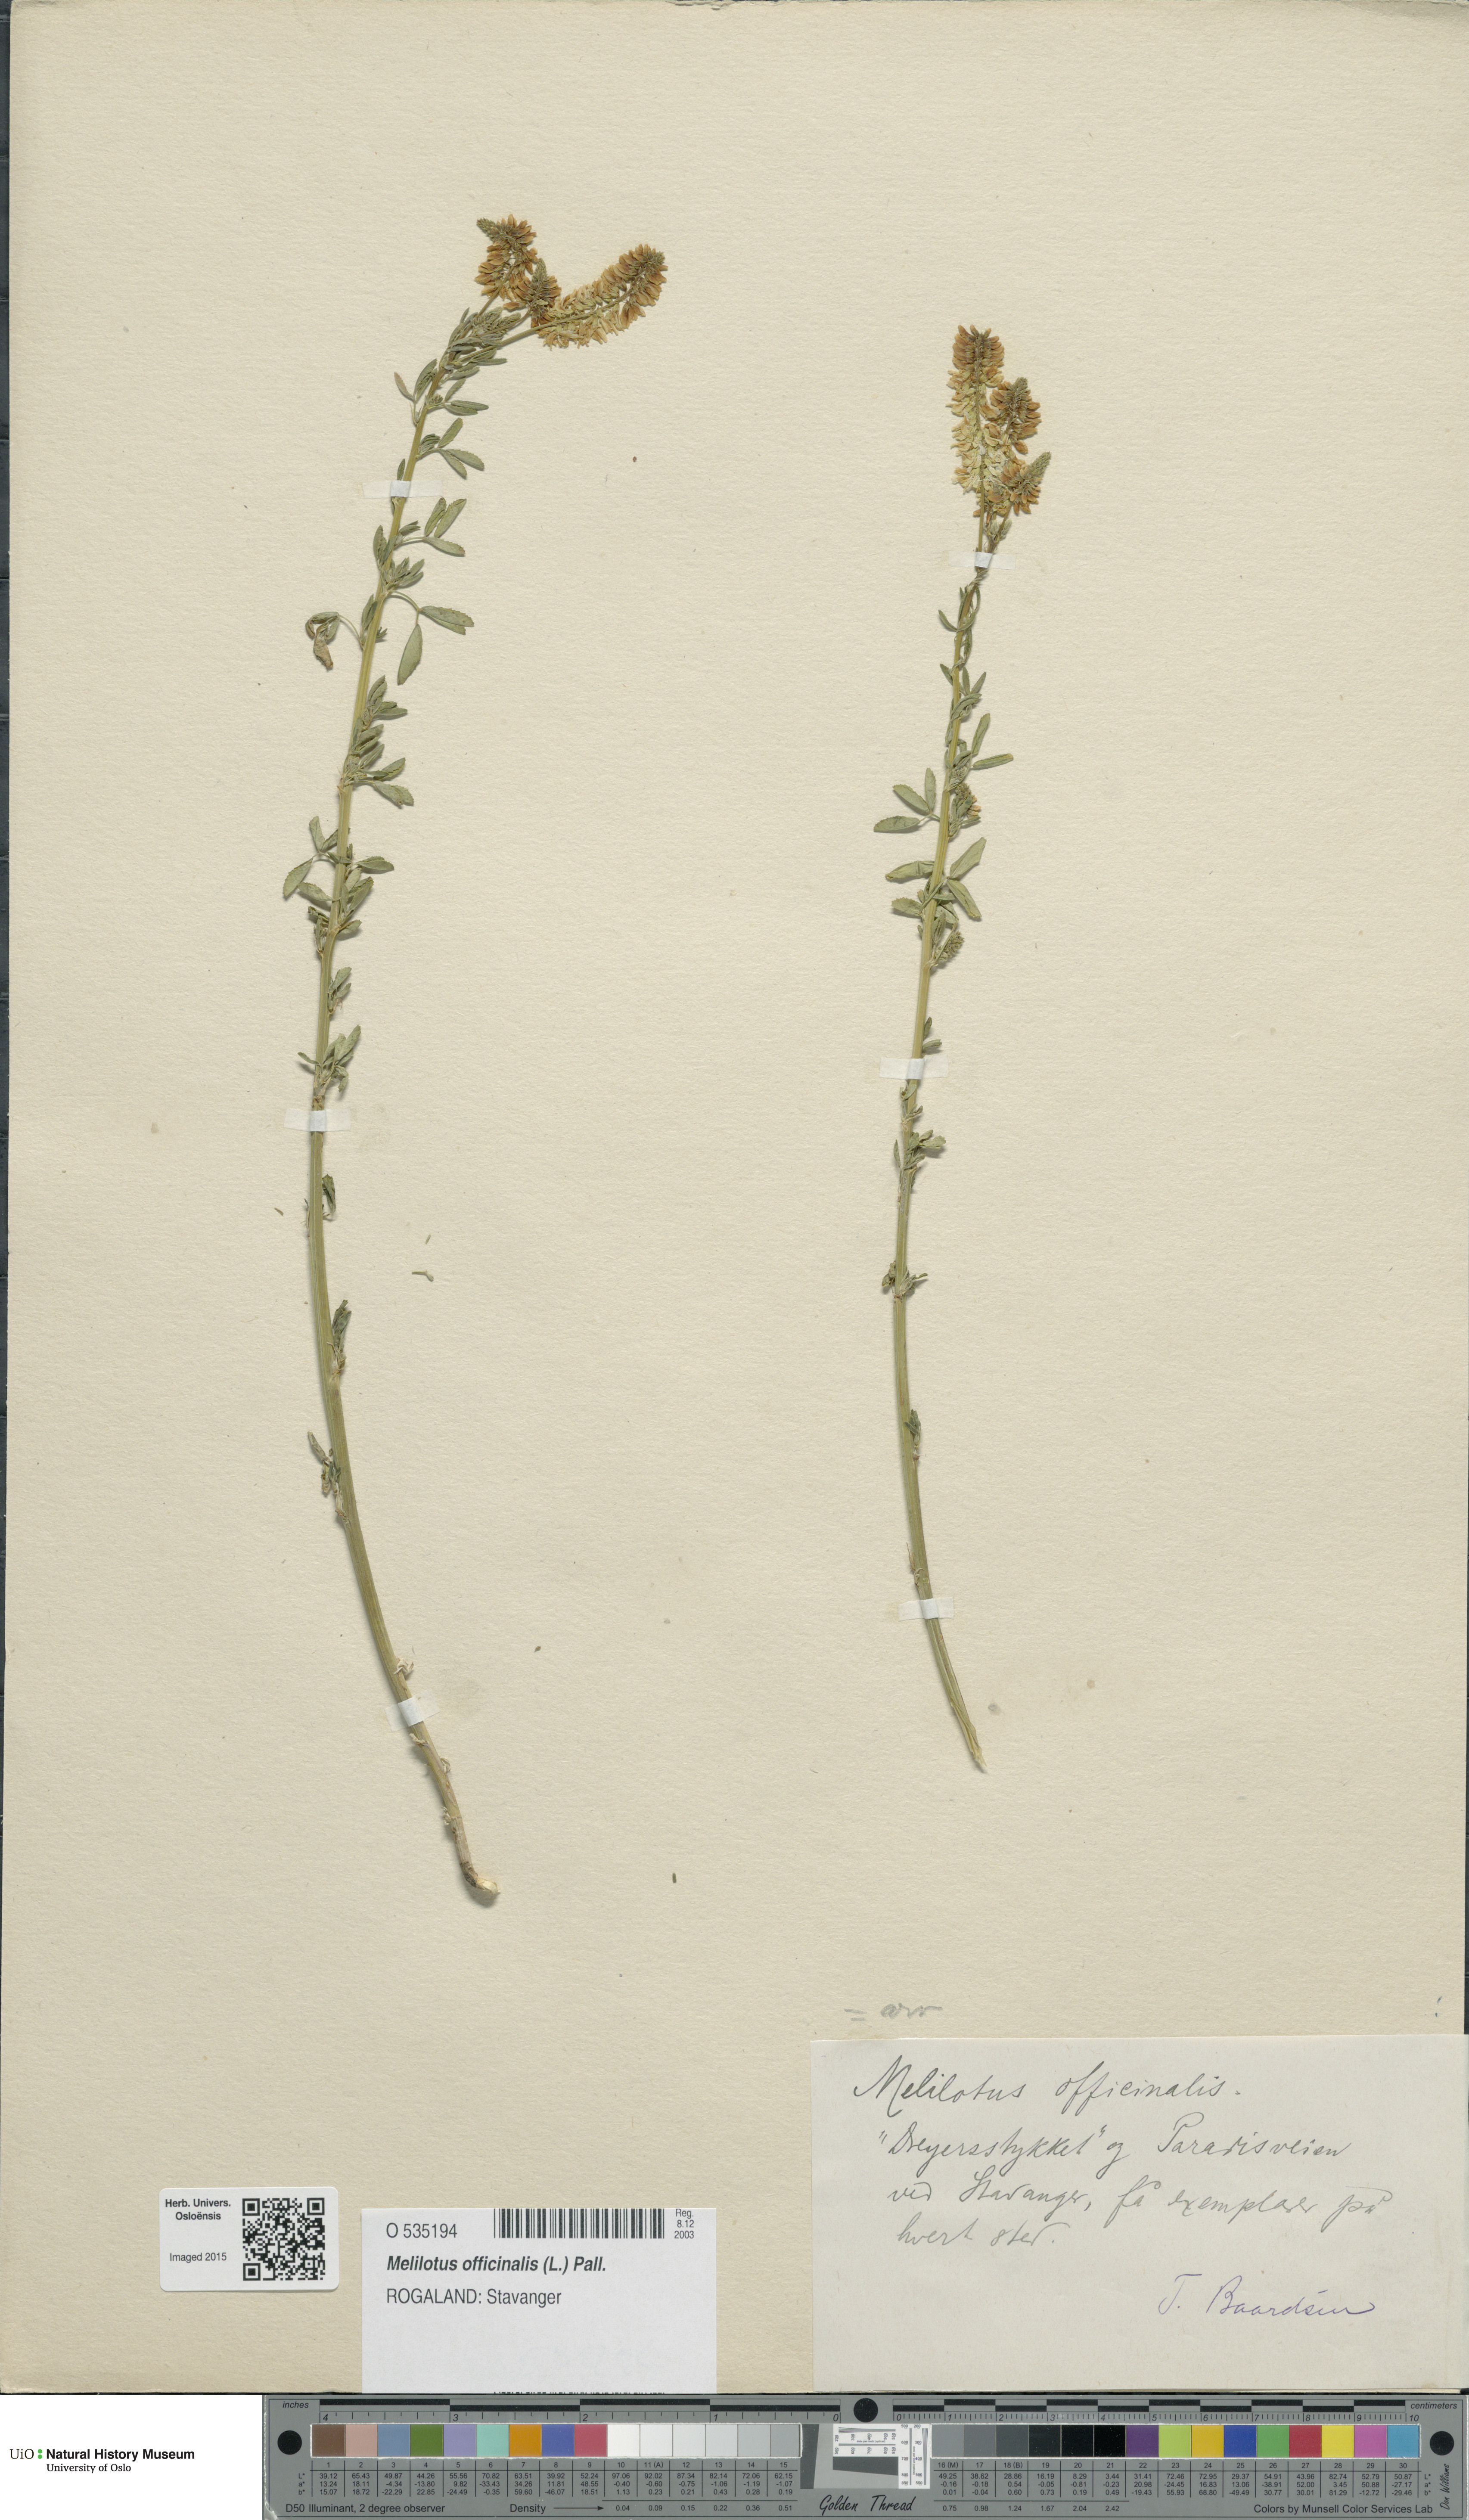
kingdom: Plantae
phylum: Tracheophyta
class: Magnoliopsida
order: Fabales
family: Fabaceae
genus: Melilotus
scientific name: Melilotus officinalis
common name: Sweetclover
